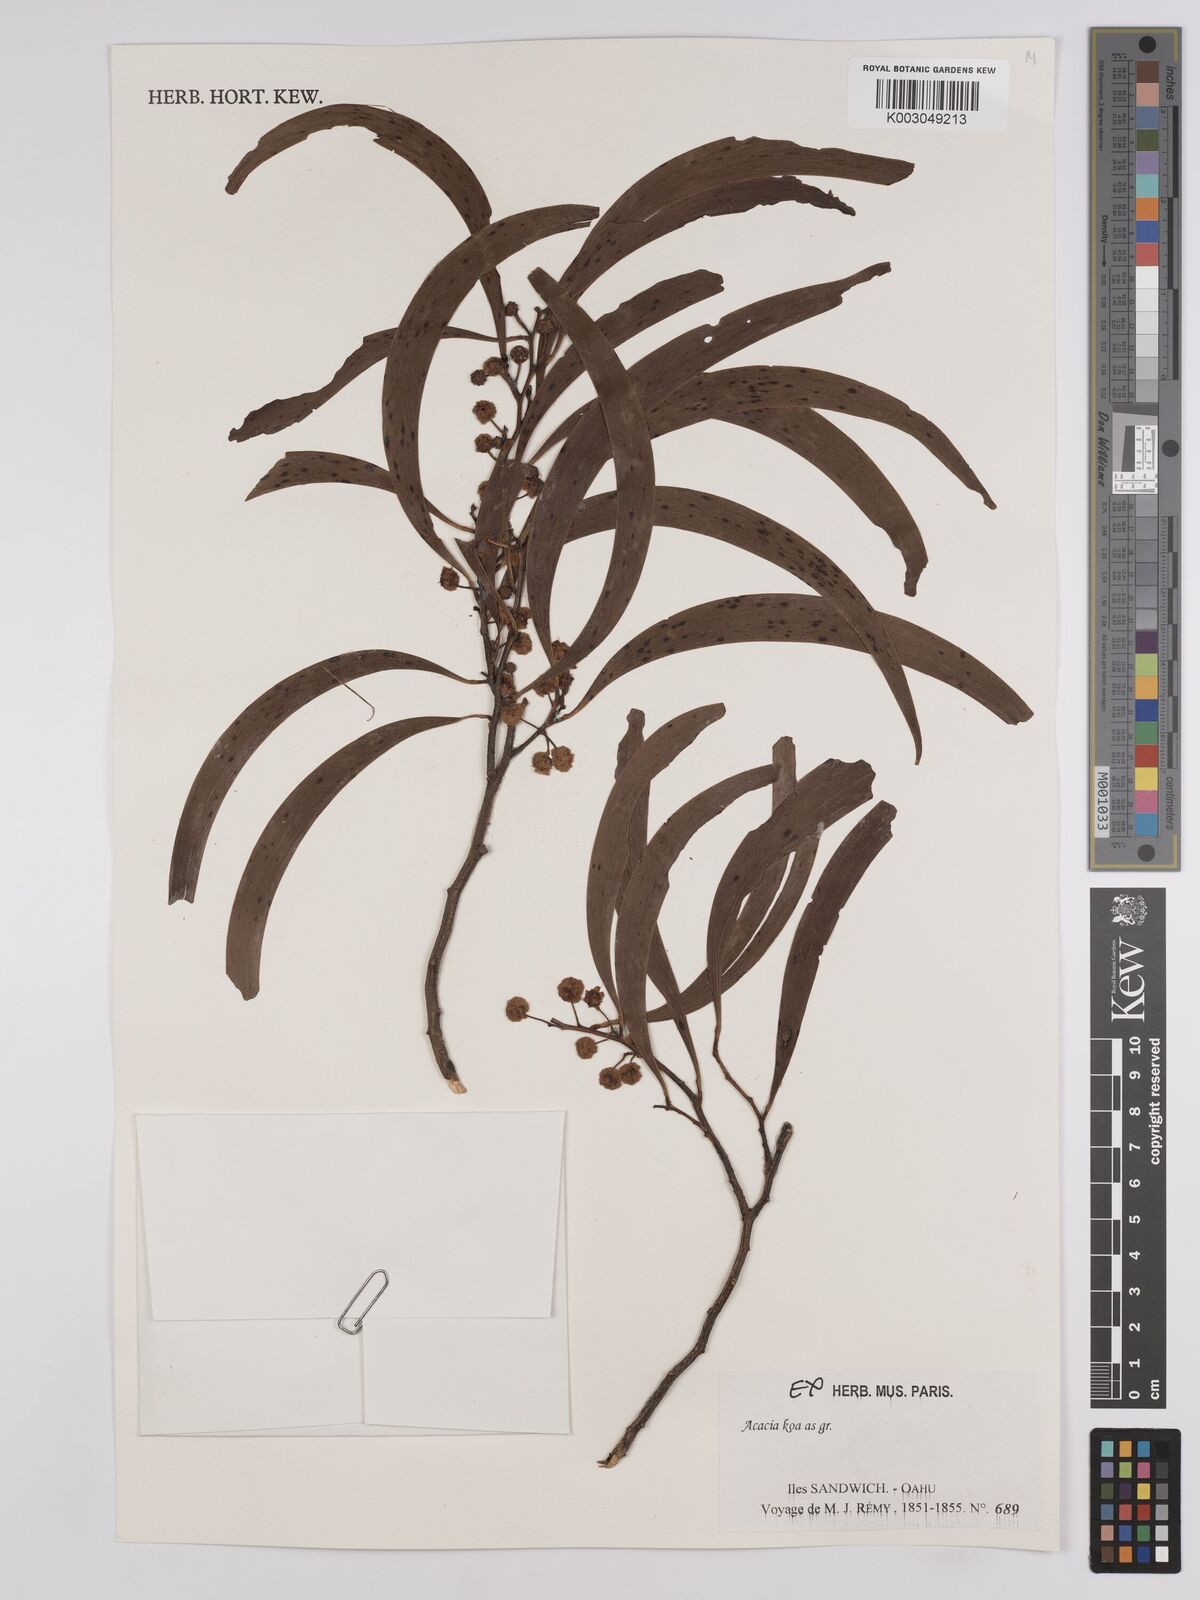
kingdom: Plantae
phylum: Tracheophyta
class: Magnoliopsida
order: Fabales
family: Fabaceae
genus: Acacia
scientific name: Acacia koa
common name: Gray koa
